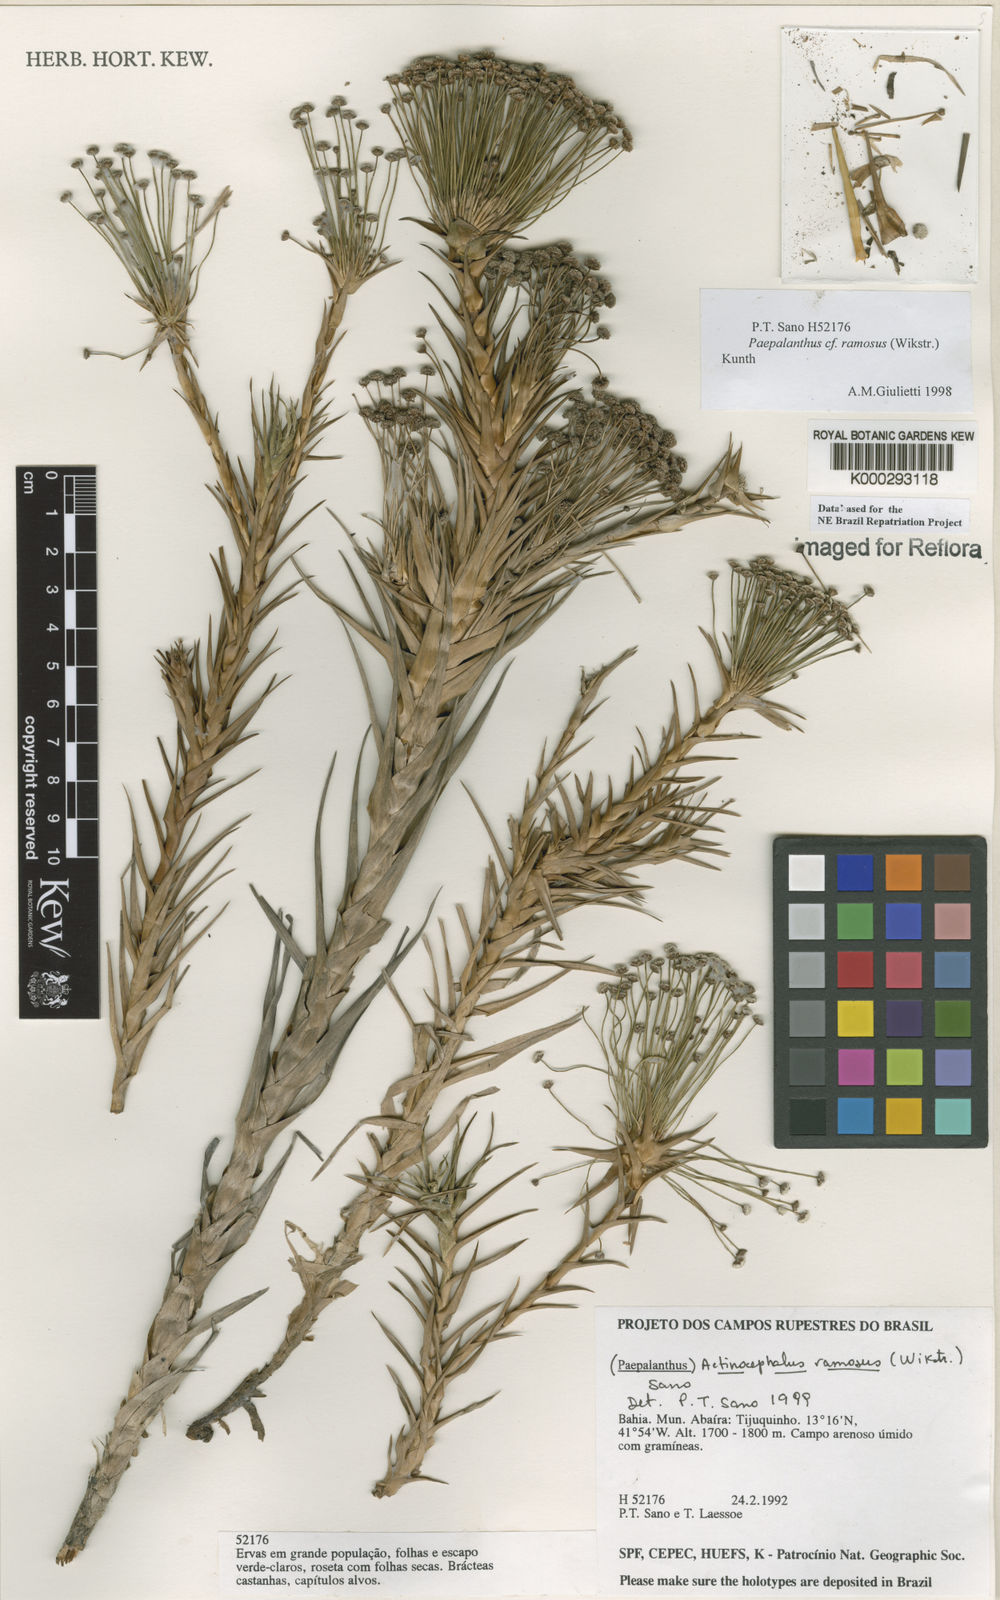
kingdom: Plantae
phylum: Tracheophyta
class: Liliopsida
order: Poales
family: Eriocaulaceae
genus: Paepalanthus
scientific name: Paepalanthus ramosus
